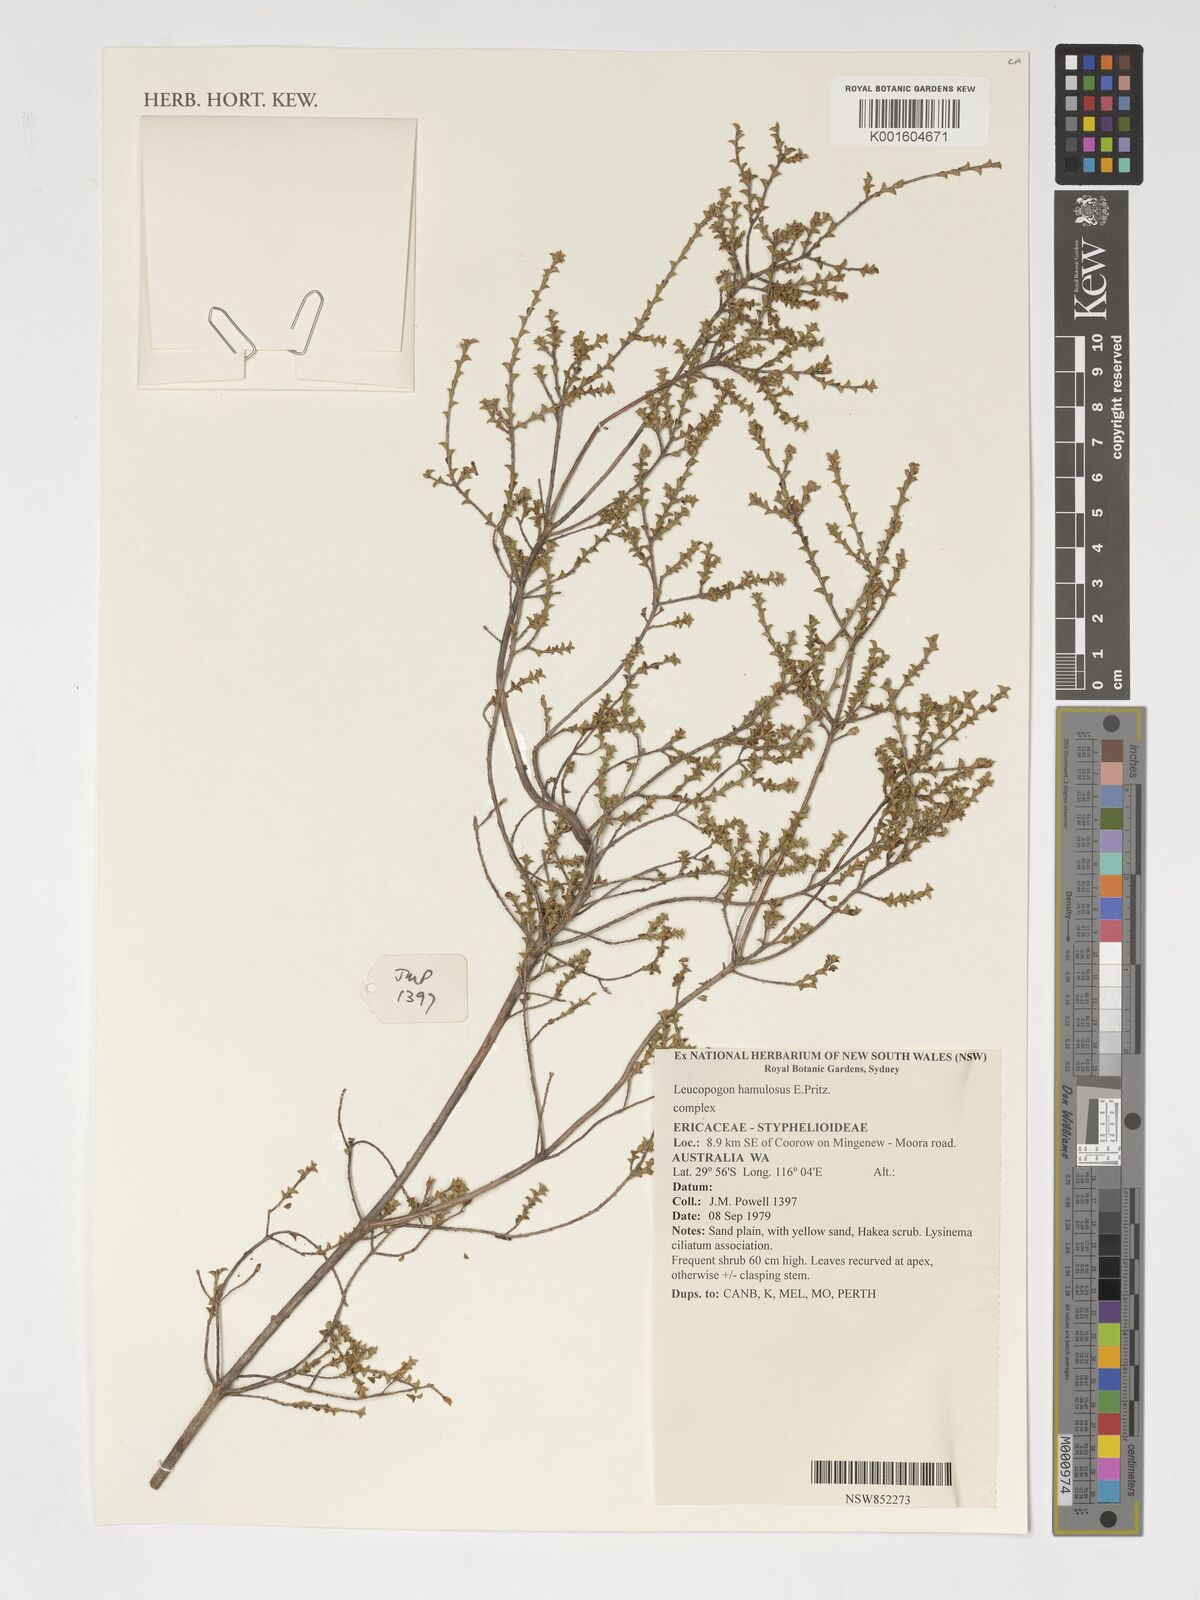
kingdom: Plantae
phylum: Tracheophyta
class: Magnoliopsida
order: Ericales
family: Ericaceae
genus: Styphelia
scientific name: Styphelia hamulosa
